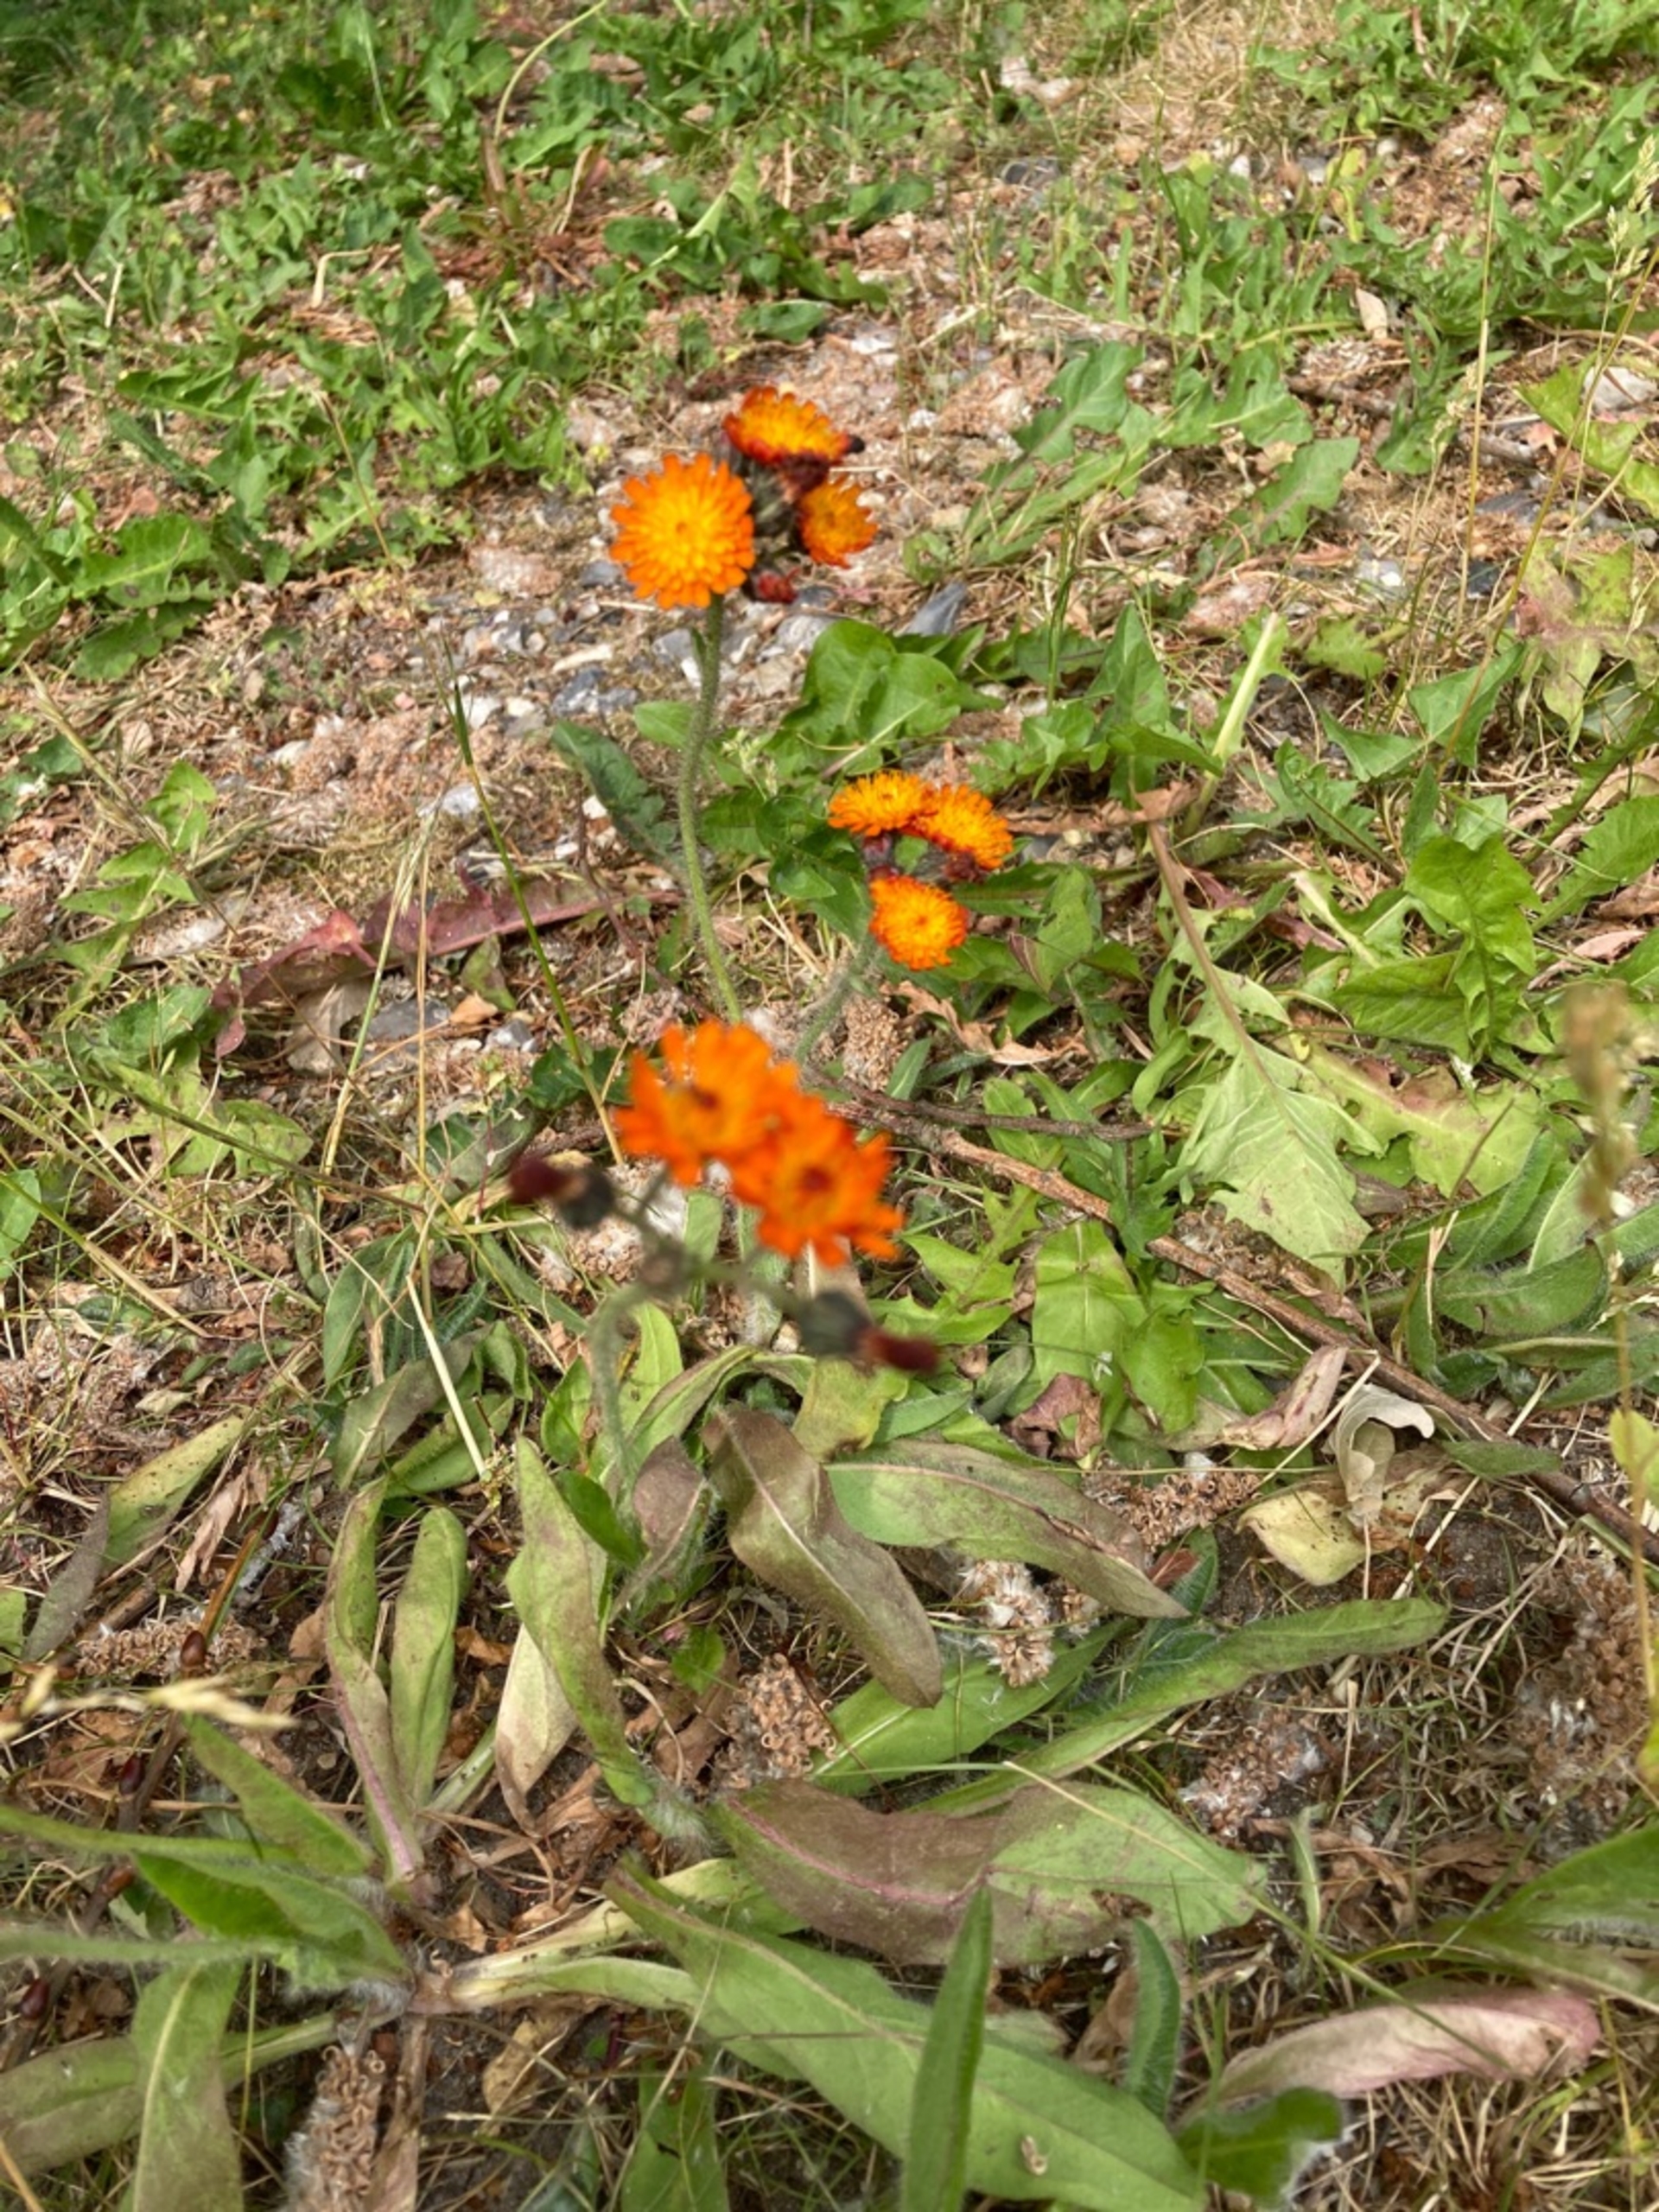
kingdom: Plantae
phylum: Tracheophyta
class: Magnoliopsida
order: Asterales
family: Asteraceae
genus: Pilosella
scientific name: Pilosella aurantiaca
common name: Pomerans-høgeurt
